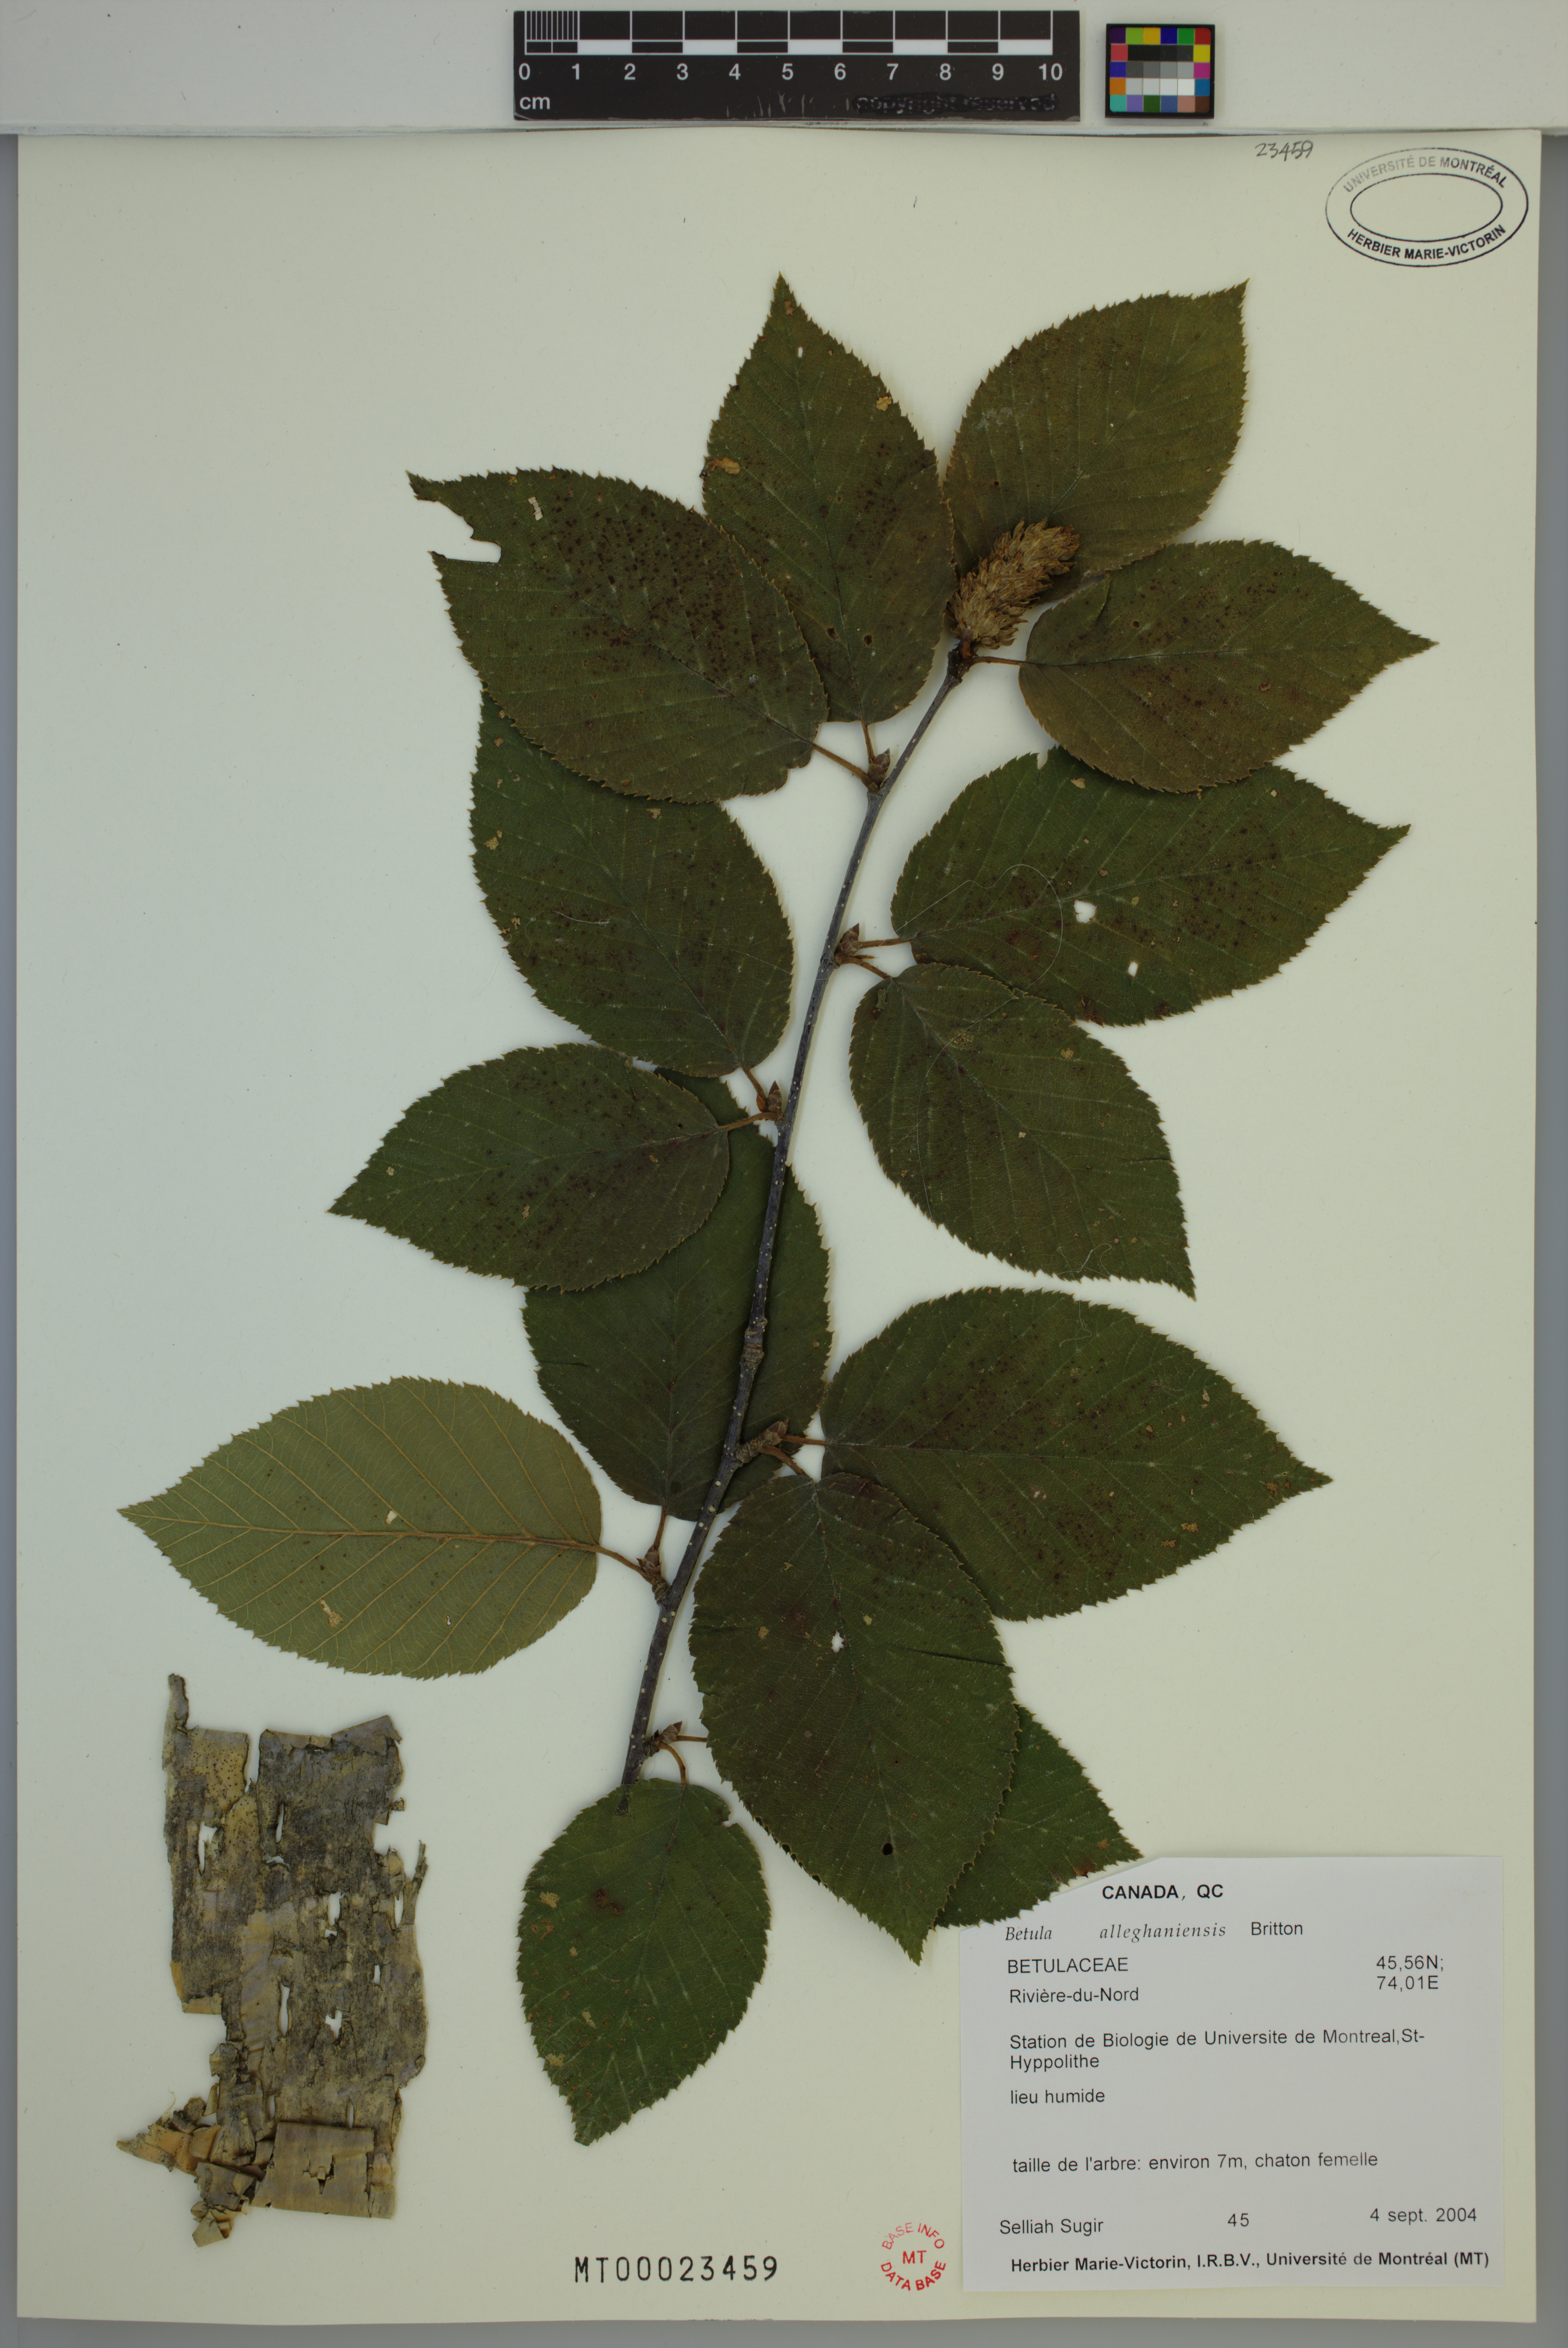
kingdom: Plantae
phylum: Tracheophyta
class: Magnoliopsida
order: Fagales
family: Betulaceae
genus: Betula
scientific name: Betula alleghaniensis
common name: Yellow birch
